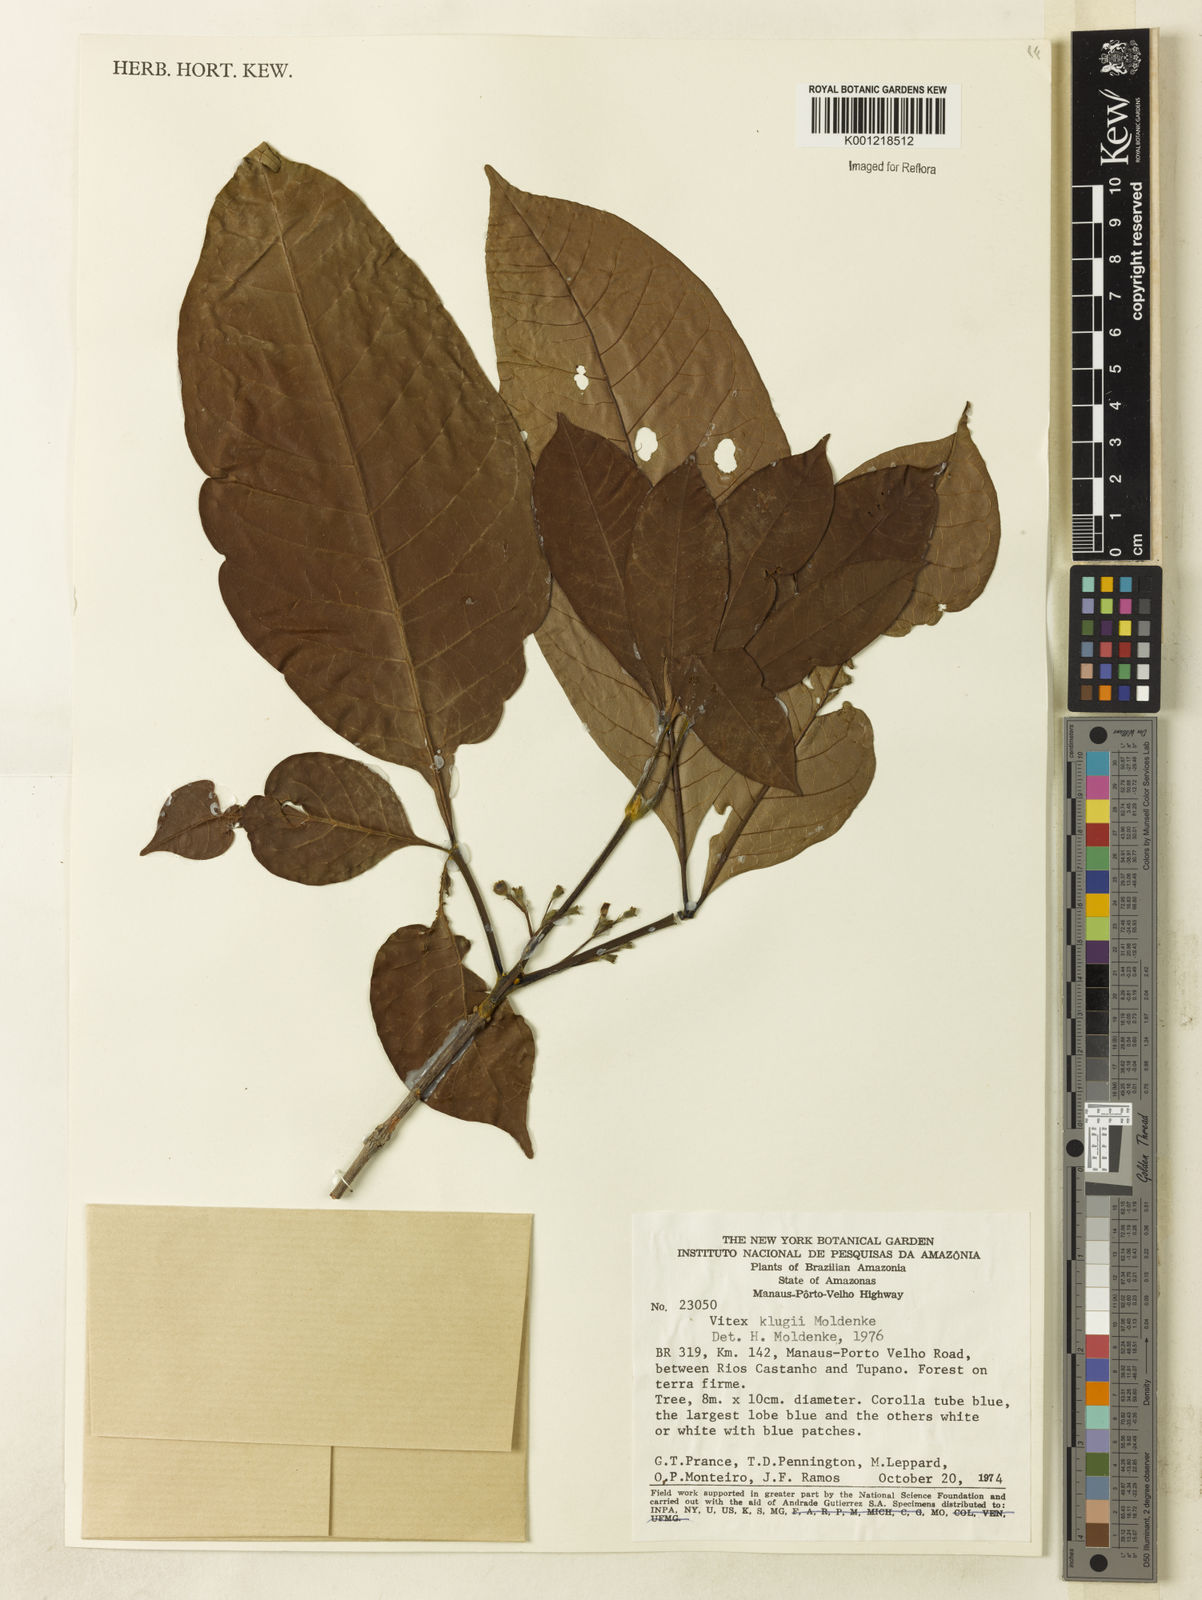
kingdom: Plantae
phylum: Tracheophyta
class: Magnoliopsida
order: Lamiales
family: Lamiaceae
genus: Vitex
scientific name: Vitex klugii
